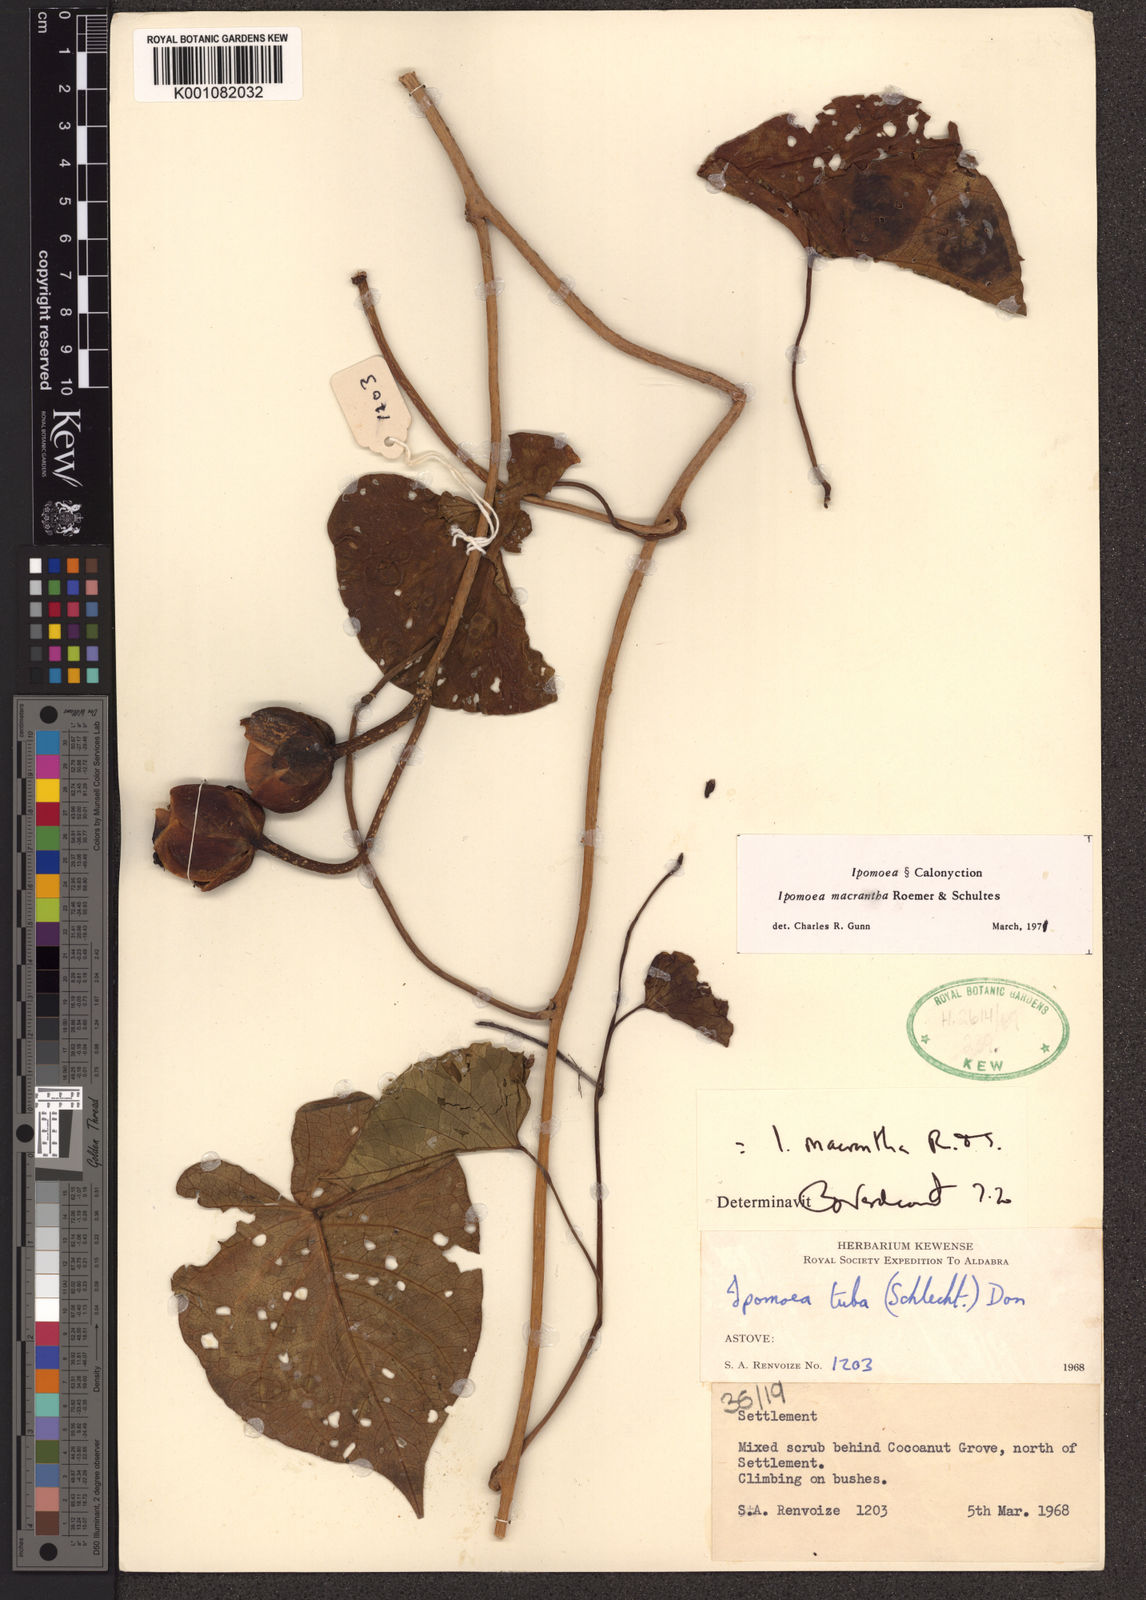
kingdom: Plantae
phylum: Tracheophyta
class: Magnoliopsida
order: Solanales
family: Convolvulaceae
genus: Ipomoea
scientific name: Ipomoea violacea
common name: Beach moonflower
